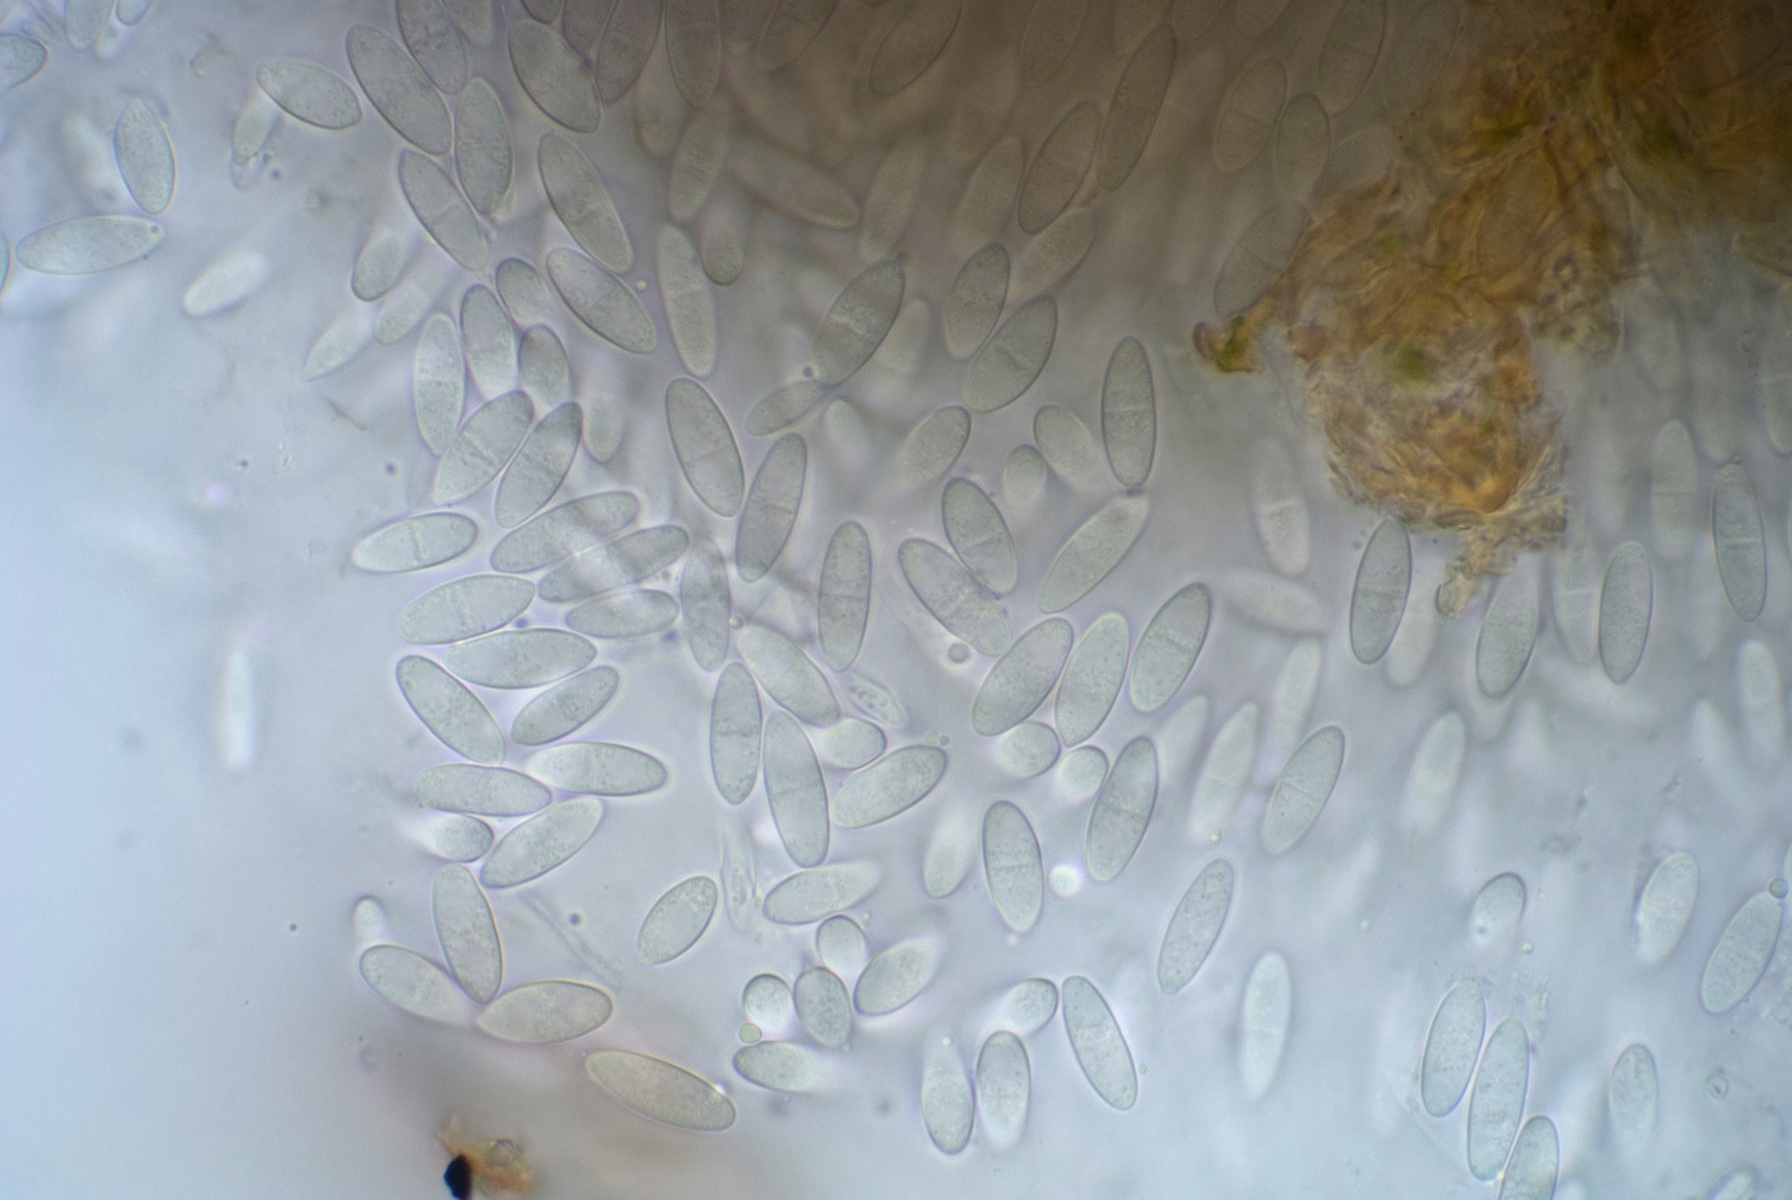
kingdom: Fungi
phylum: Ascomycota
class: Sordariomycetes
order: Diaporthales
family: Gnomoniaceae
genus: Plagiostoma
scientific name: Plagiostoma salicellum
